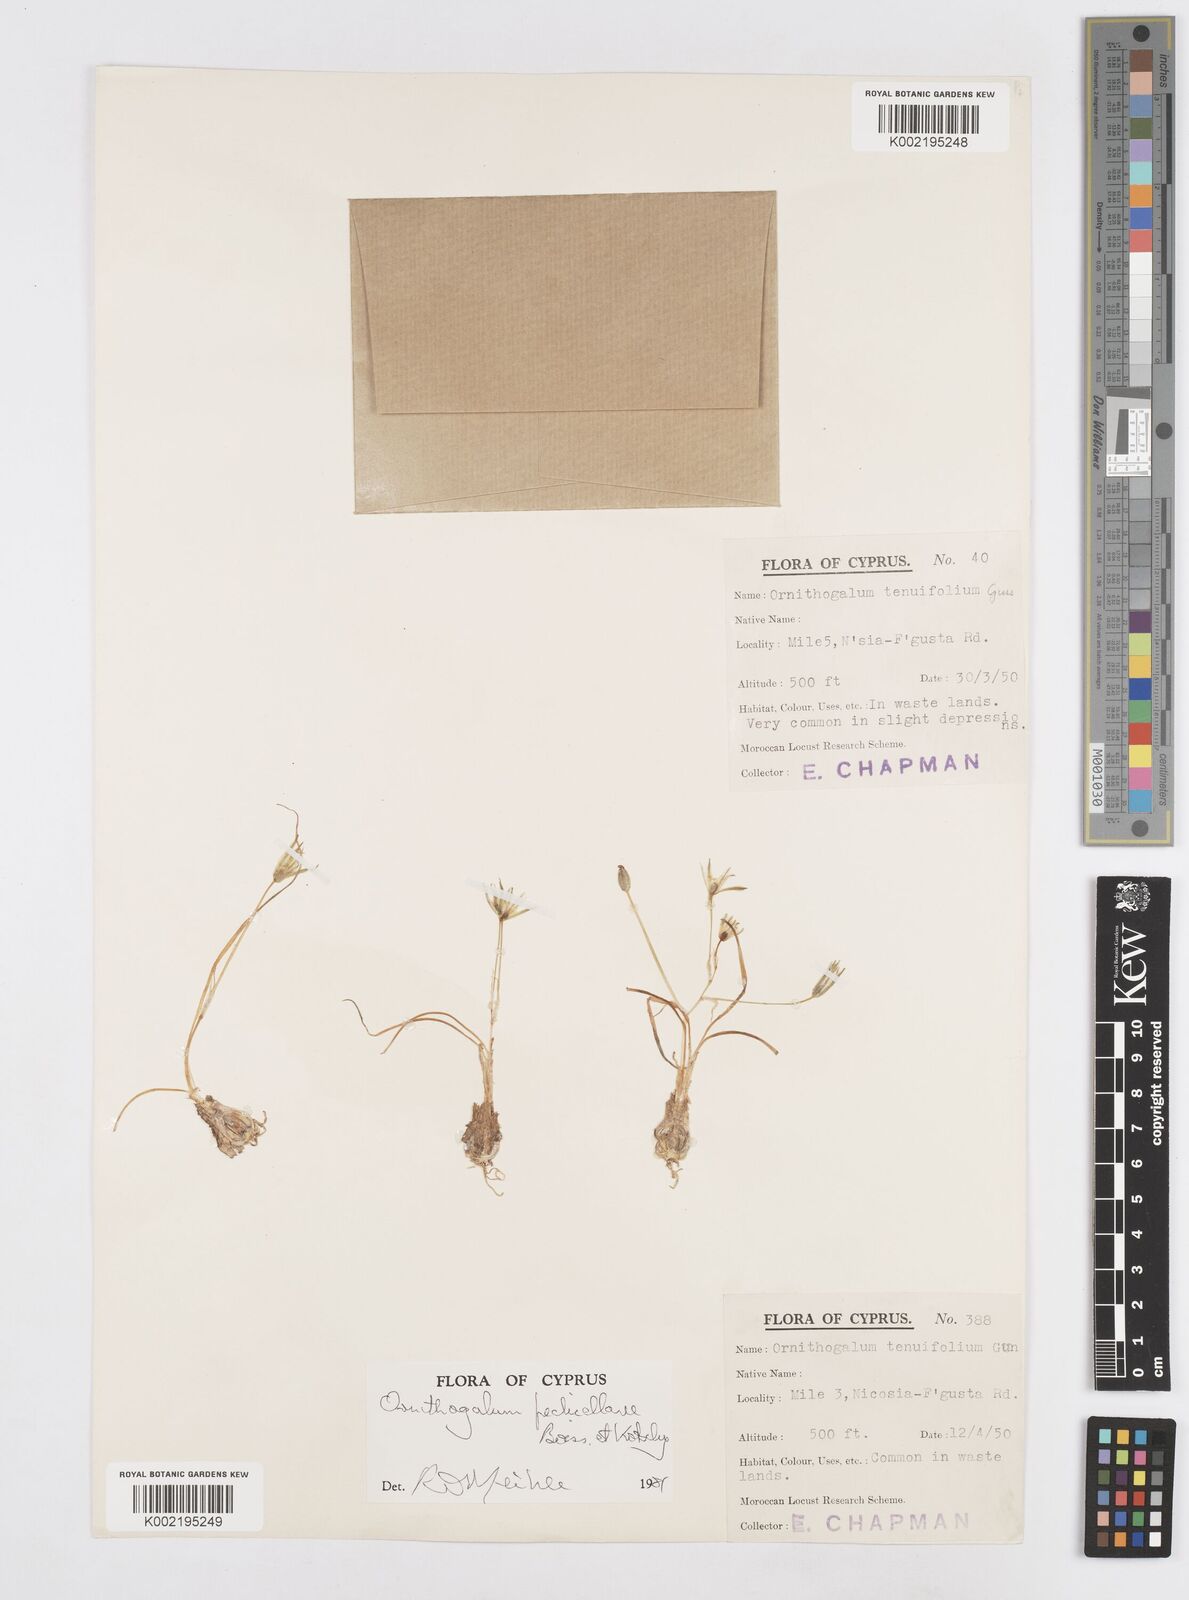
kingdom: Plantae
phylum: Tracheophyta
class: Liliopsida
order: Asparagales
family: Asparagaceae
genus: Ornithogalum
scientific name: Ornithogalum pedicellare
